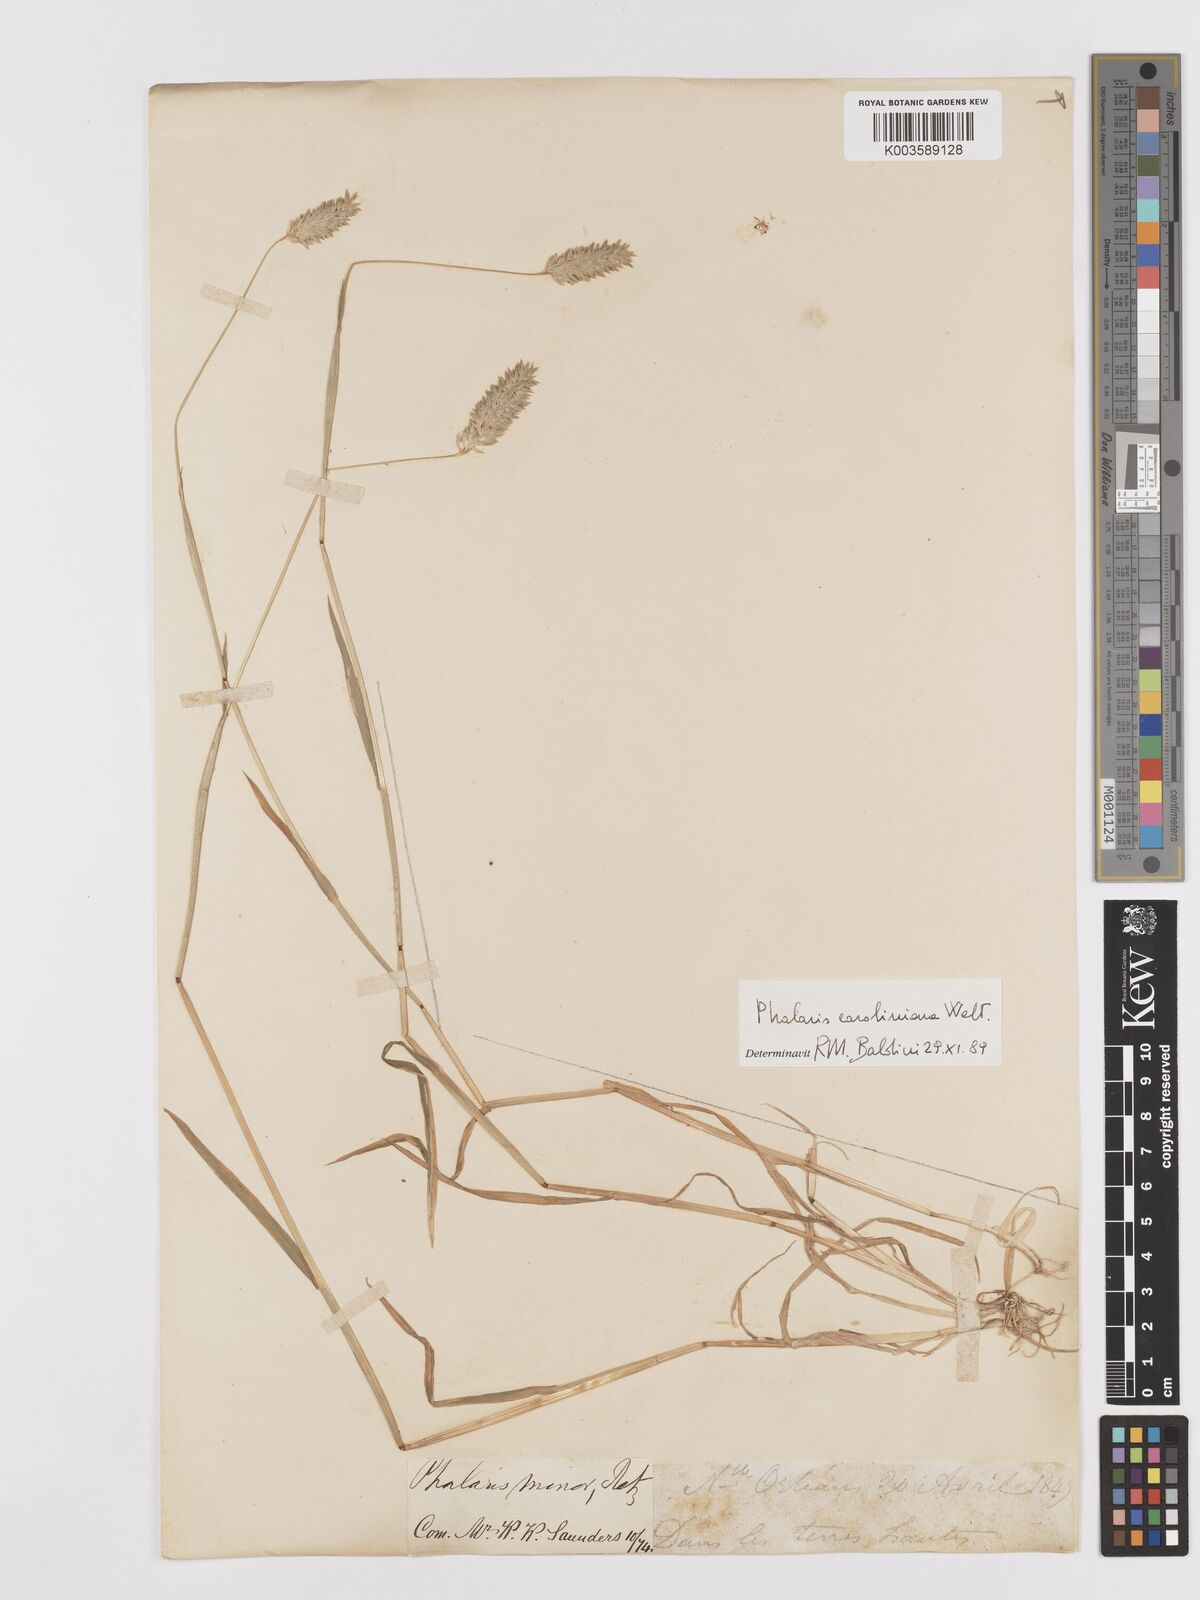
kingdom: Plantae
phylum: Tracheophyta
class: Liliopsida
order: Poales
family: Poaceae
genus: Phalaris
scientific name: Phalaris lemmonii
